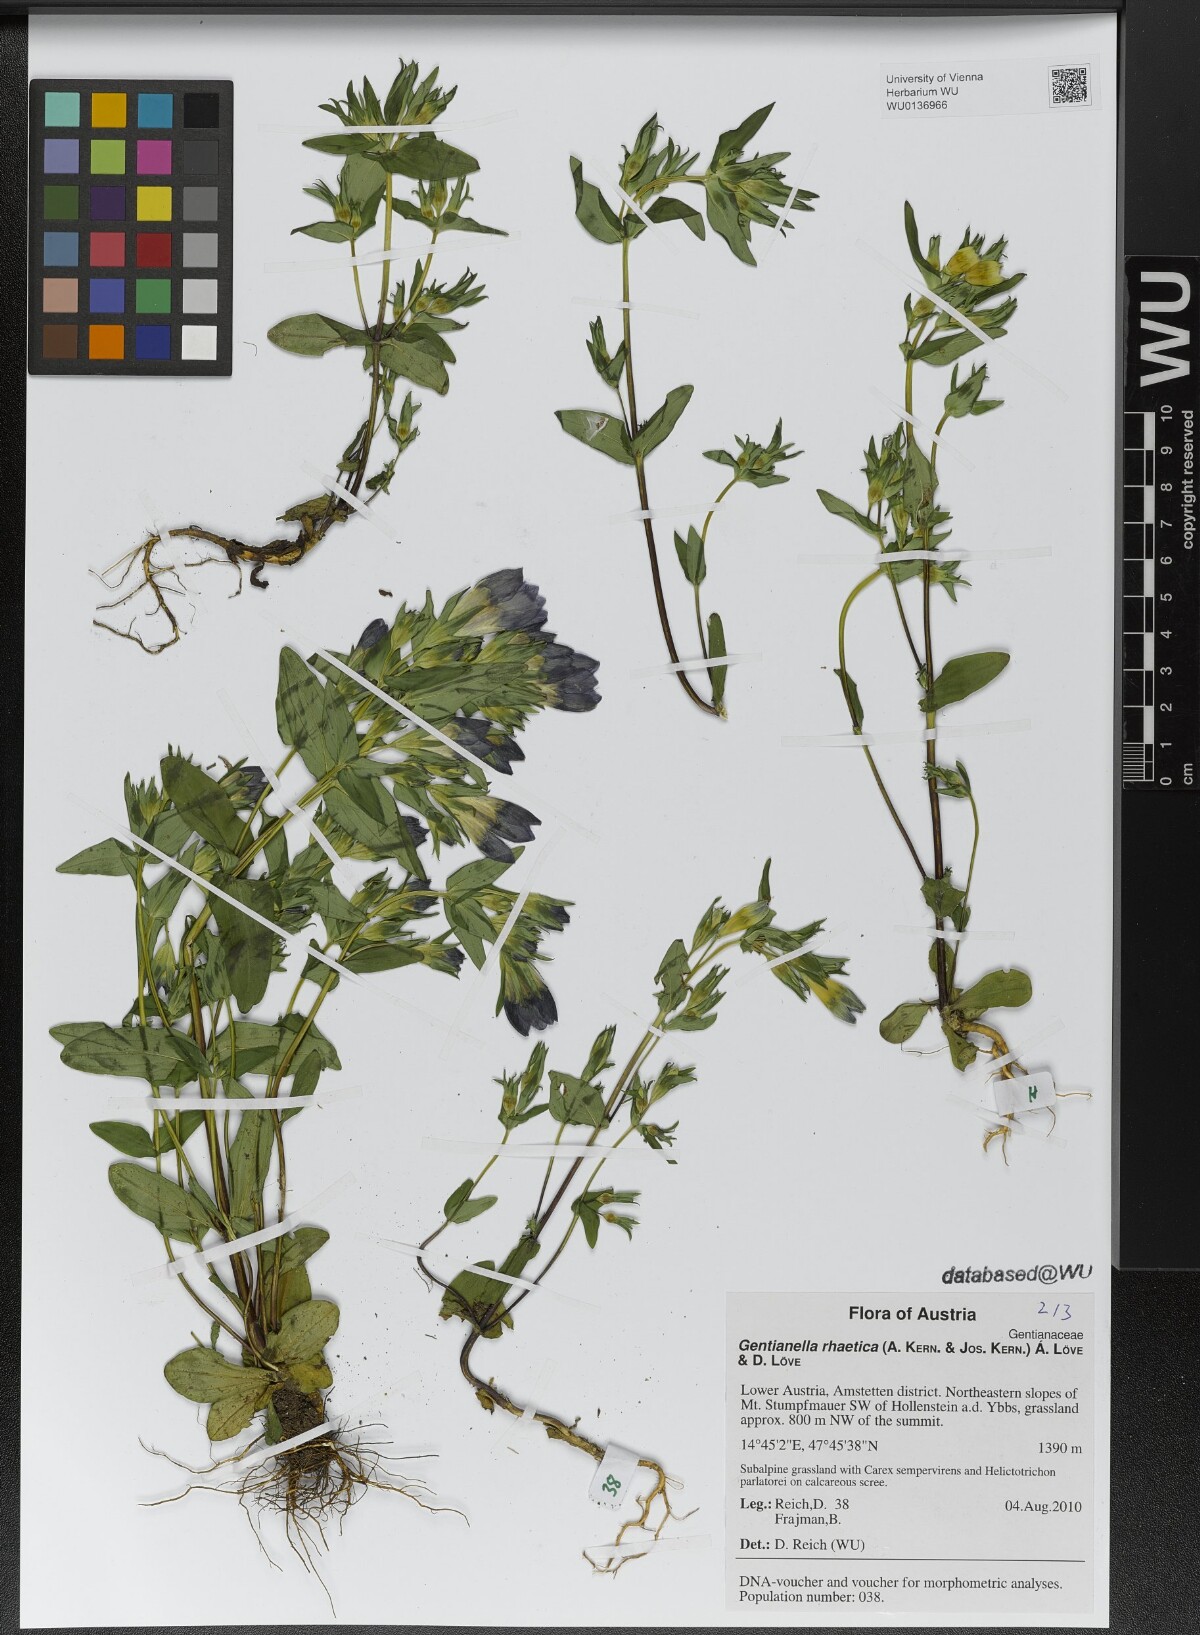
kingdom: Plantae
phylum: Tracheophyta
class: Magnoliopsida
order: Gentianales
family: Gentianaceae
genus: Gentianella
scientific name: Gentianella rhaetica
